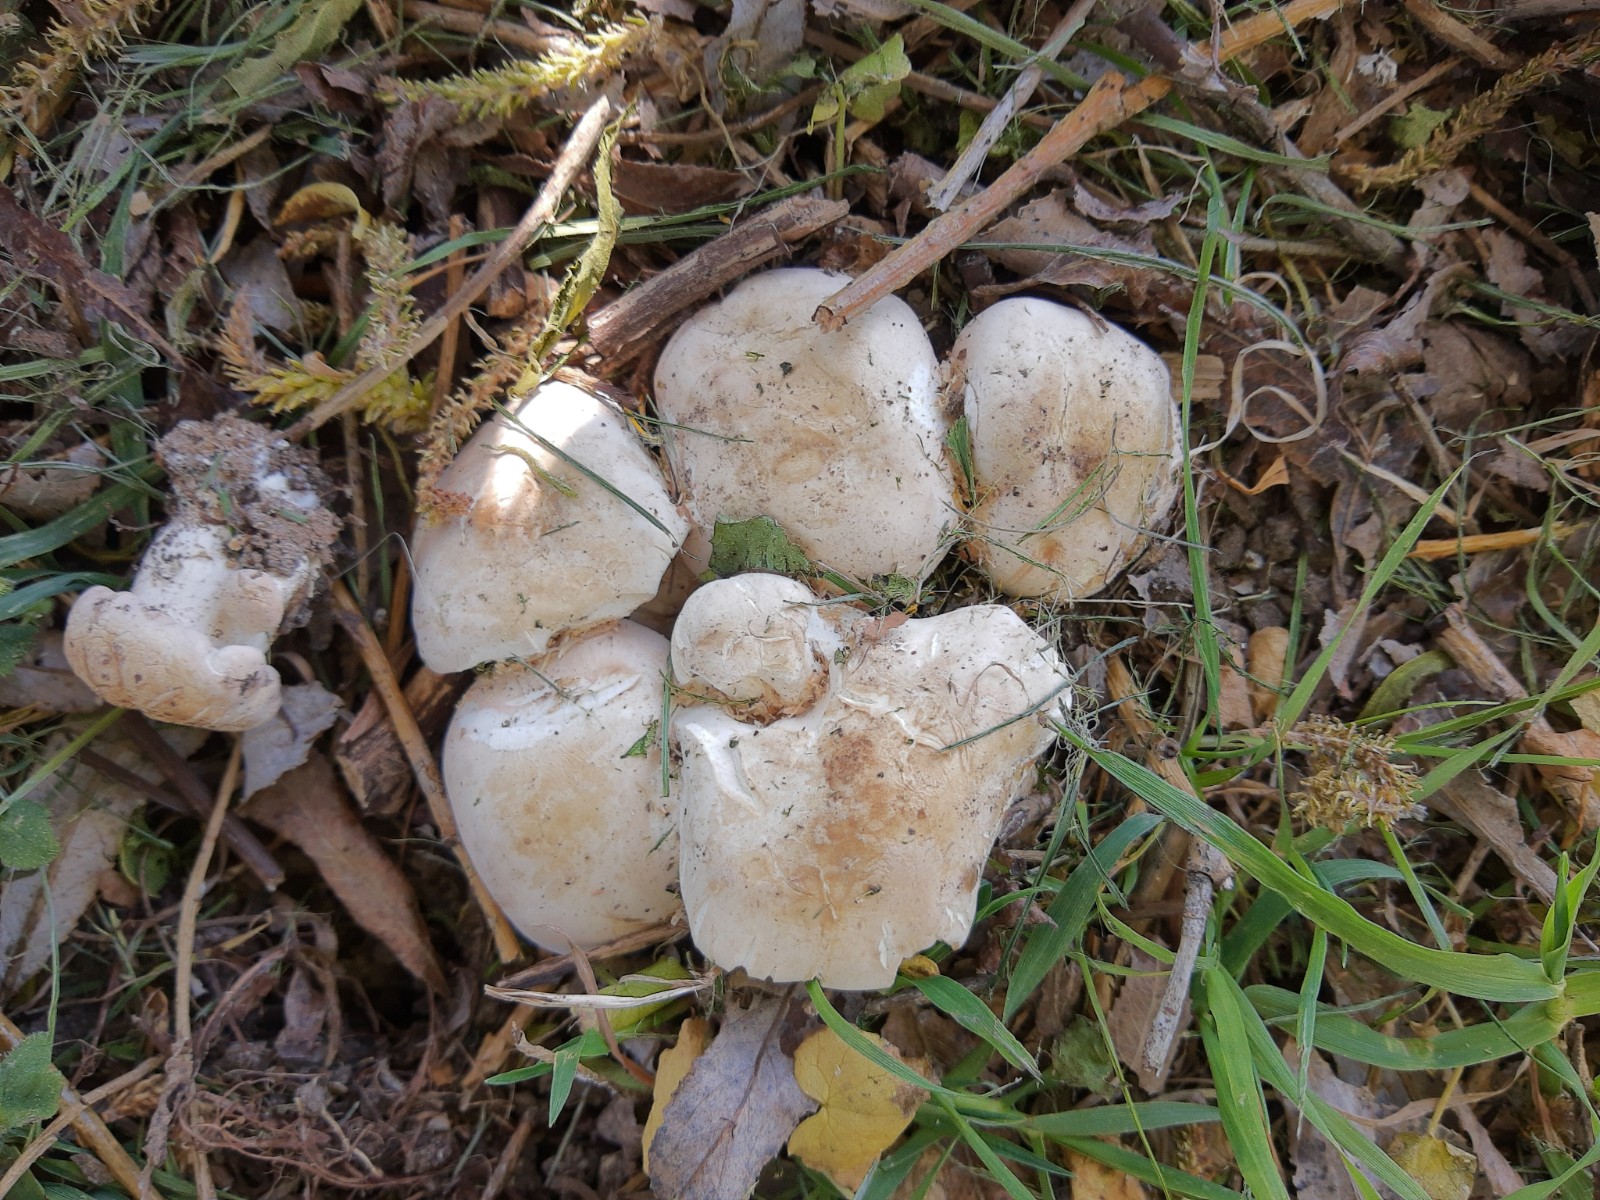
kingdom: Fungi
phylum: Basidiomycota
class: Agaricomycetes
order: Agaricales
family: Lyophyllaceae
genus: Calocybe
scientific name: Calocybe gambosa
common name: vårmusseron
